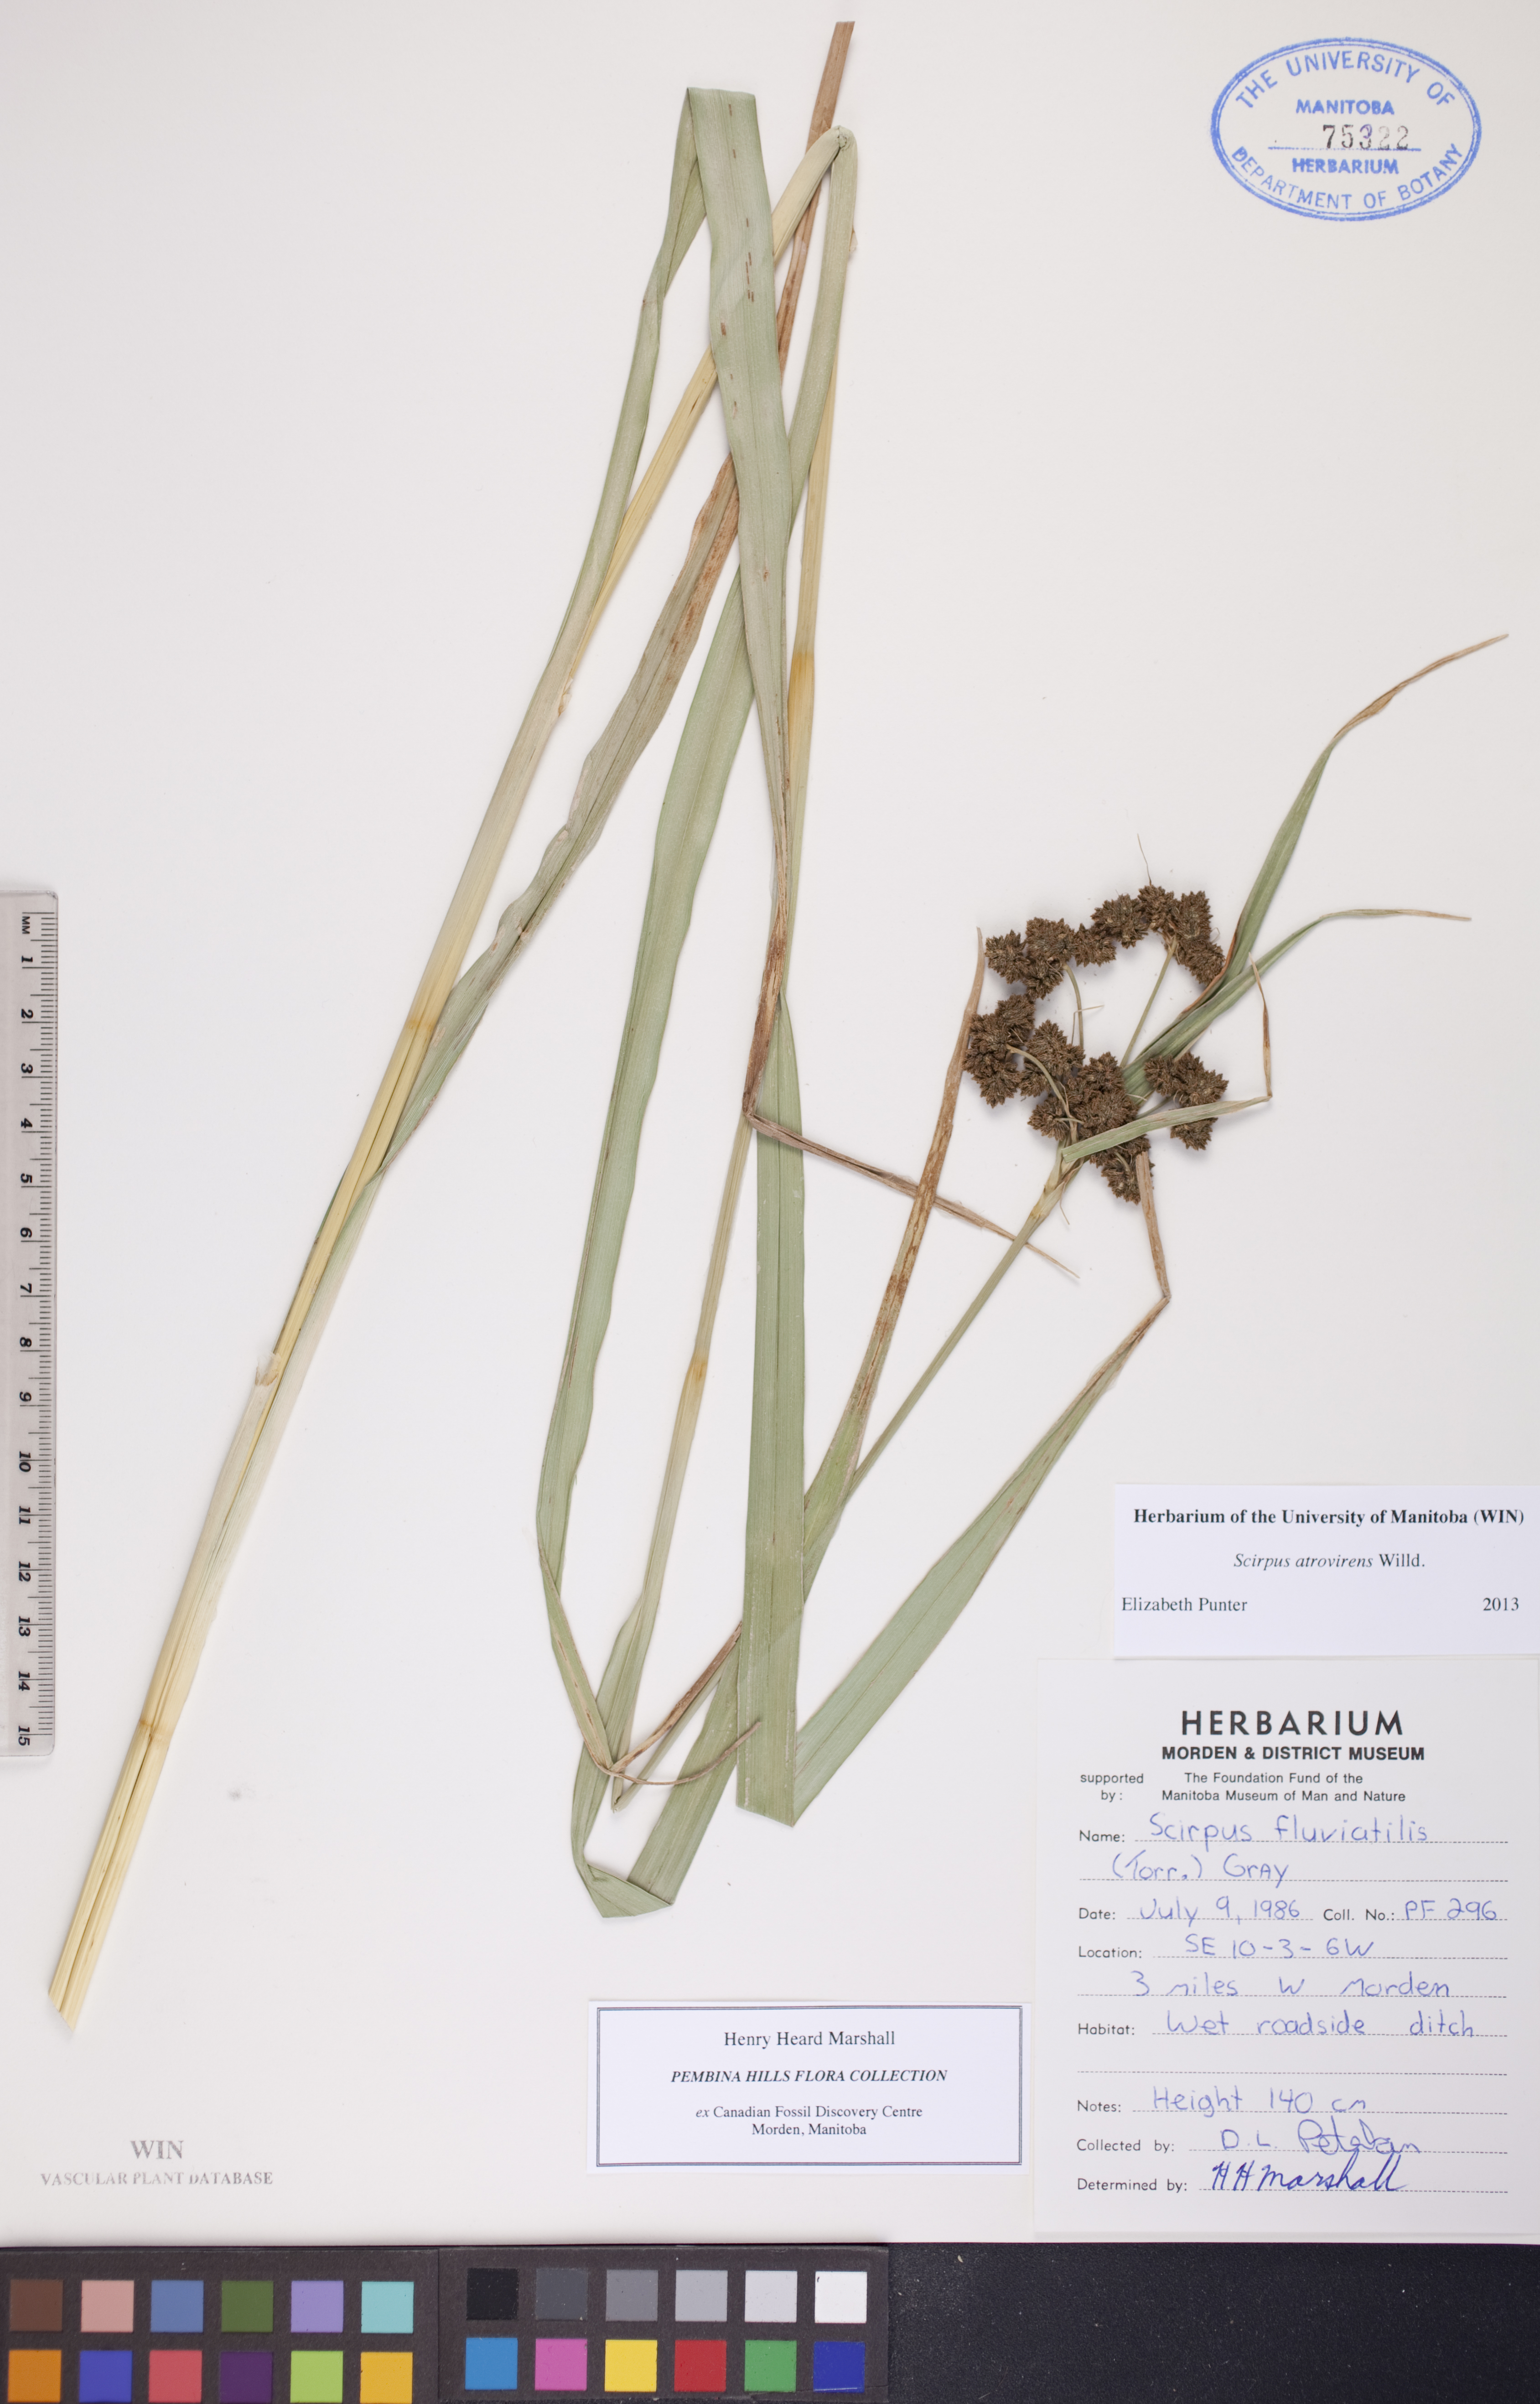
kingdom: Plantae
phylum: Tracheophyta
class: Liliopsida
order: Poales
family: Cyperaceae
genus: Scirpus
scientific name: Scirpus atrovirens
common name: Black bulrush
